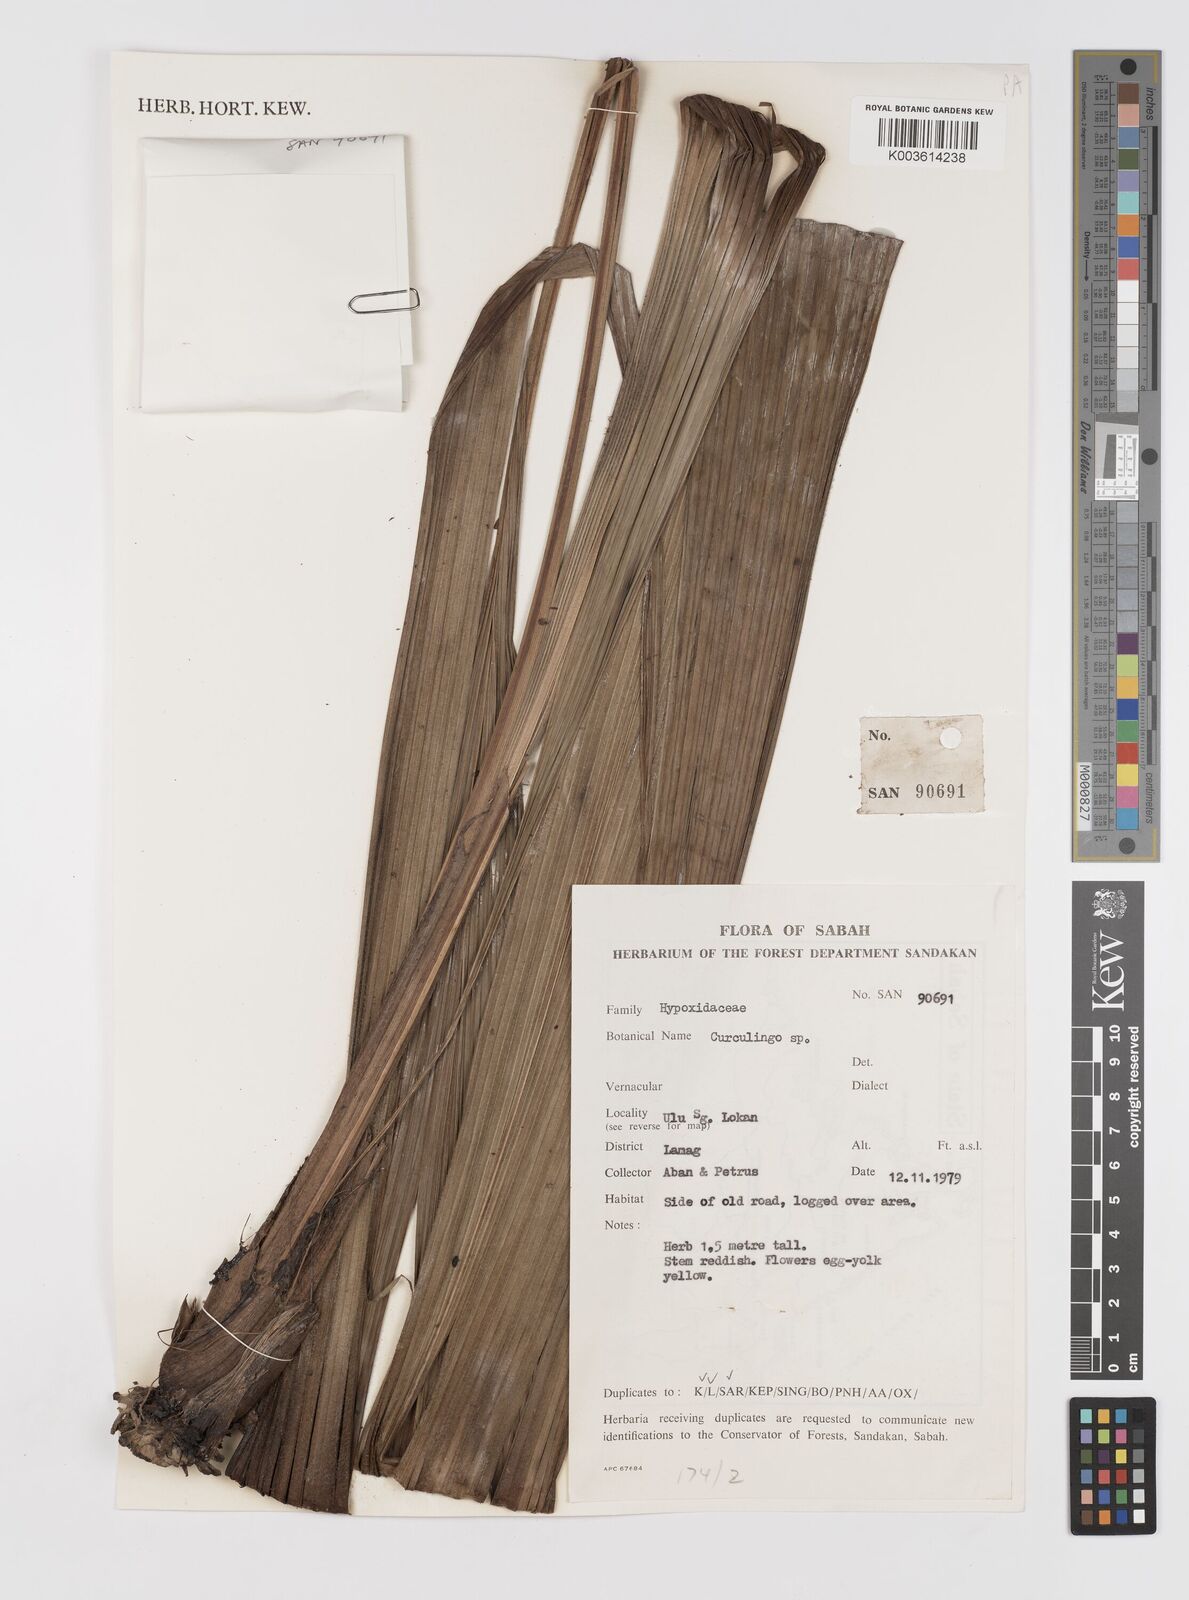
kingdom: Plantae
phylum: Tracheophyta
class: Liliopsida
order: Asparagales
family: Hypoxidaceae
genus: Curculigo
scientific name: Curculigo
